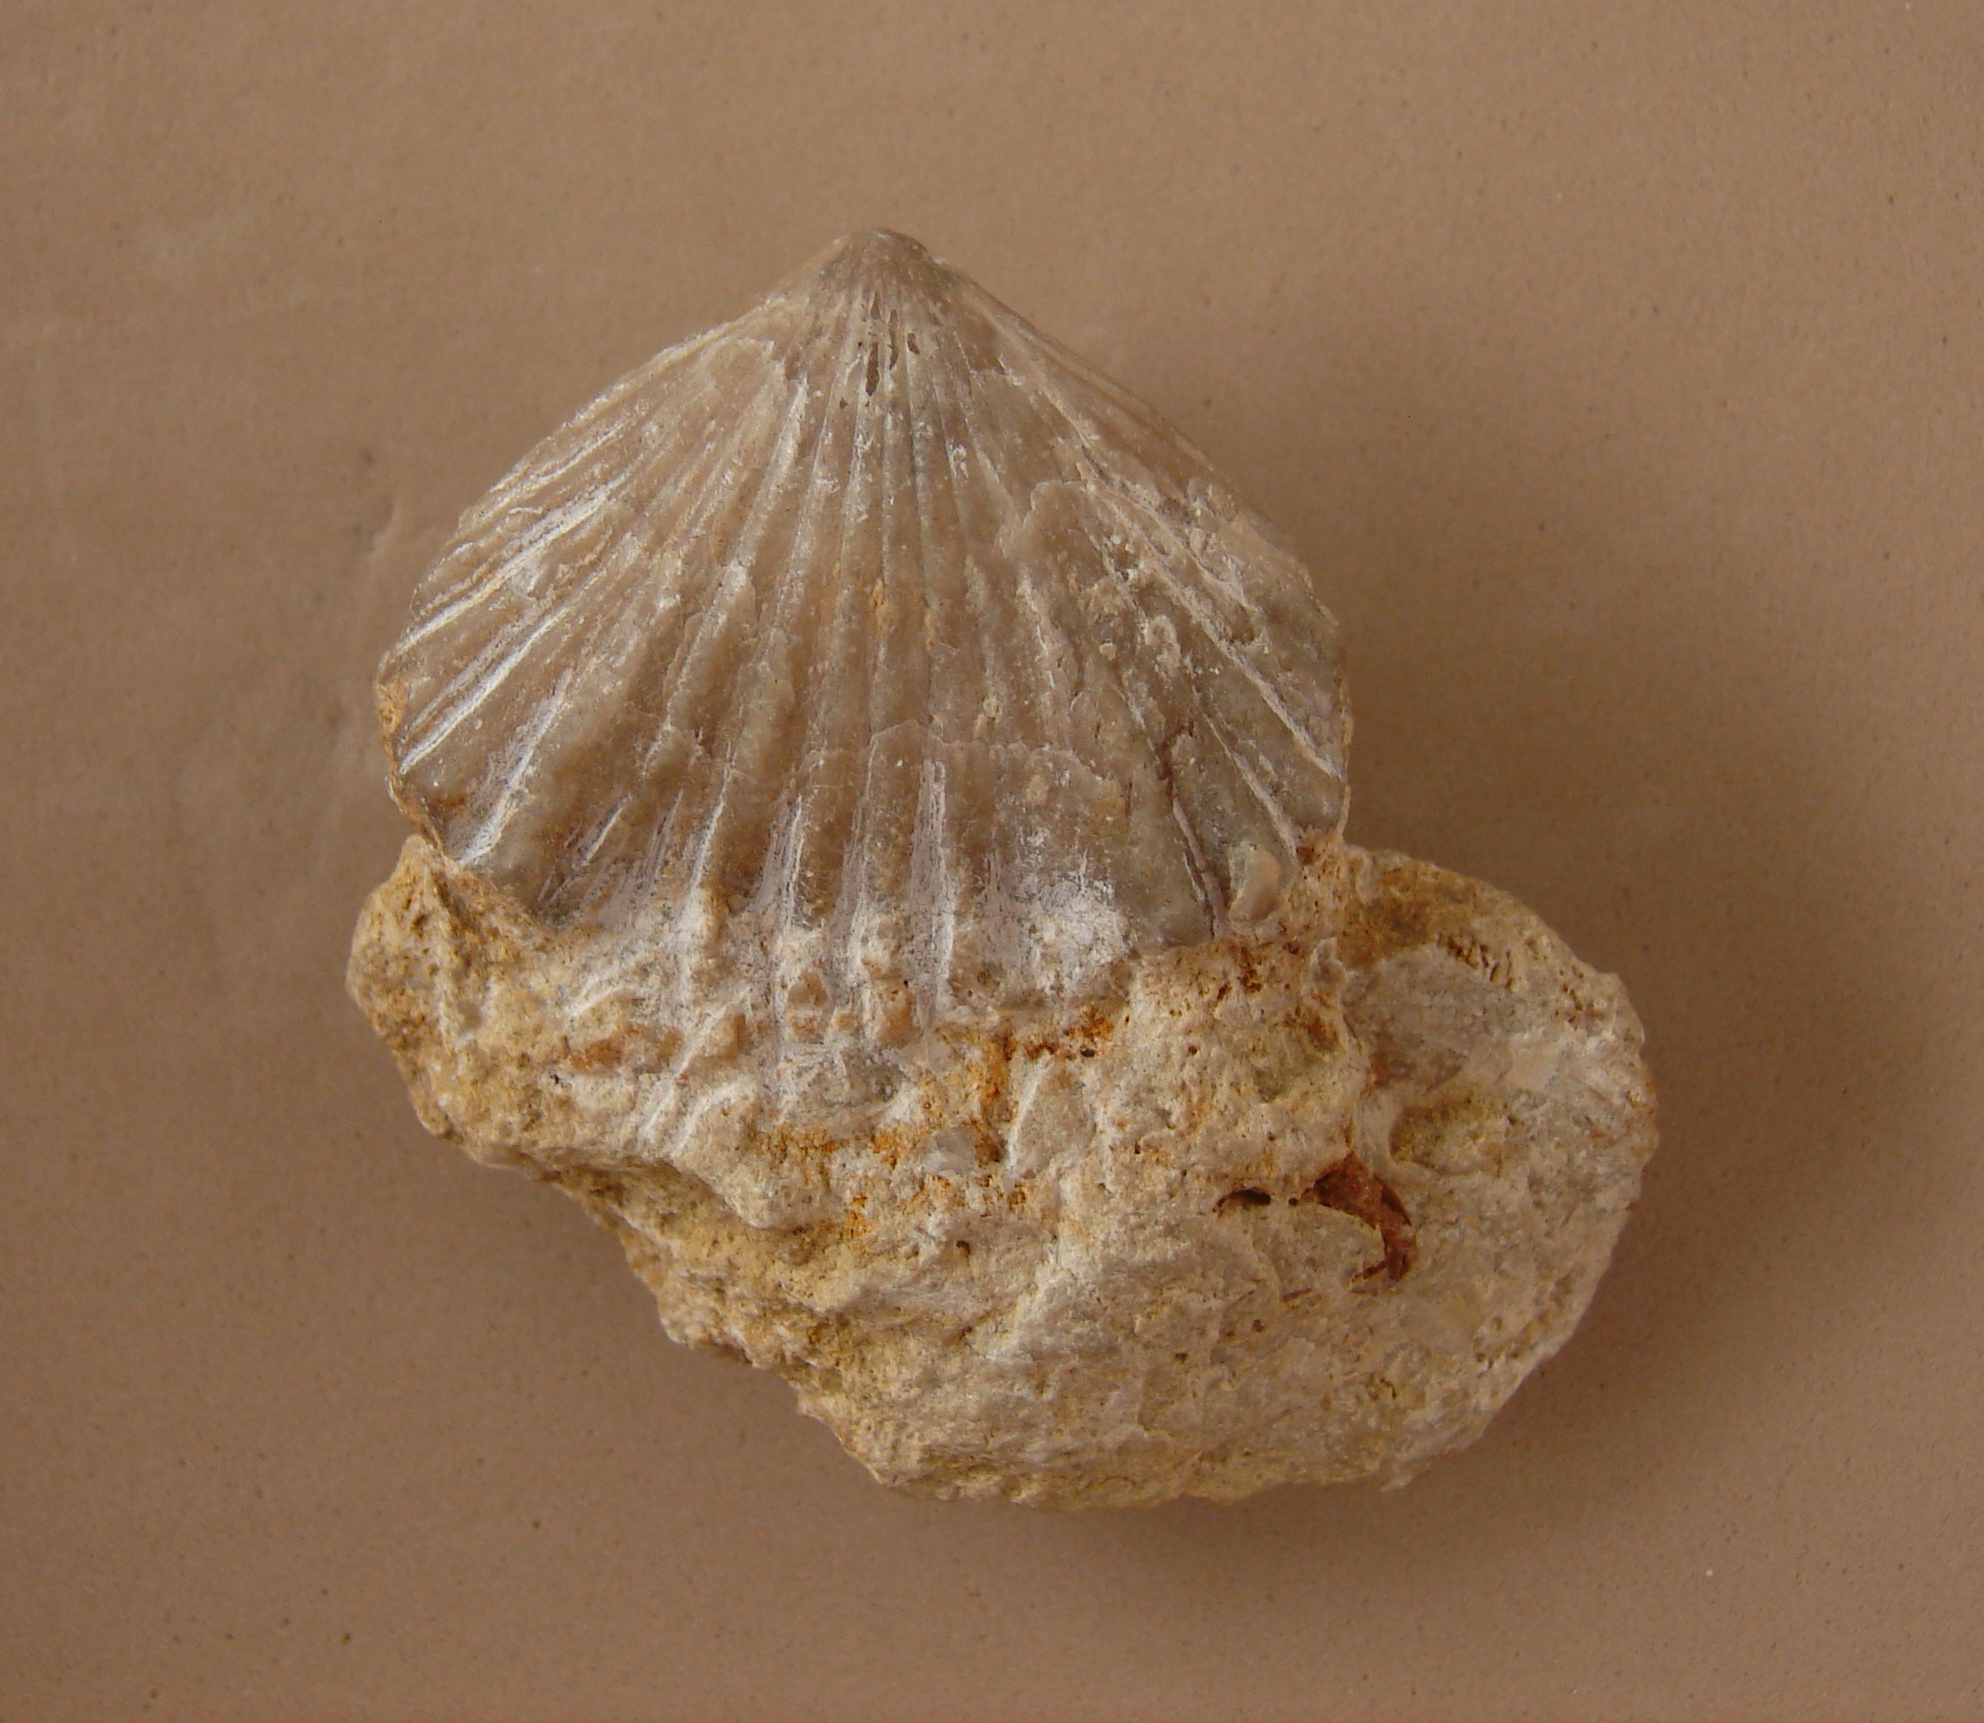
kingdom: Animalia
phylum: Brachiopoda
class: Rhynchonellata
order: Rhynchonellida
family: Rhynchonellidae
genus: Cymatorhynchia
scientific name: Cymatorhynchia Terebratula quadriplicata
